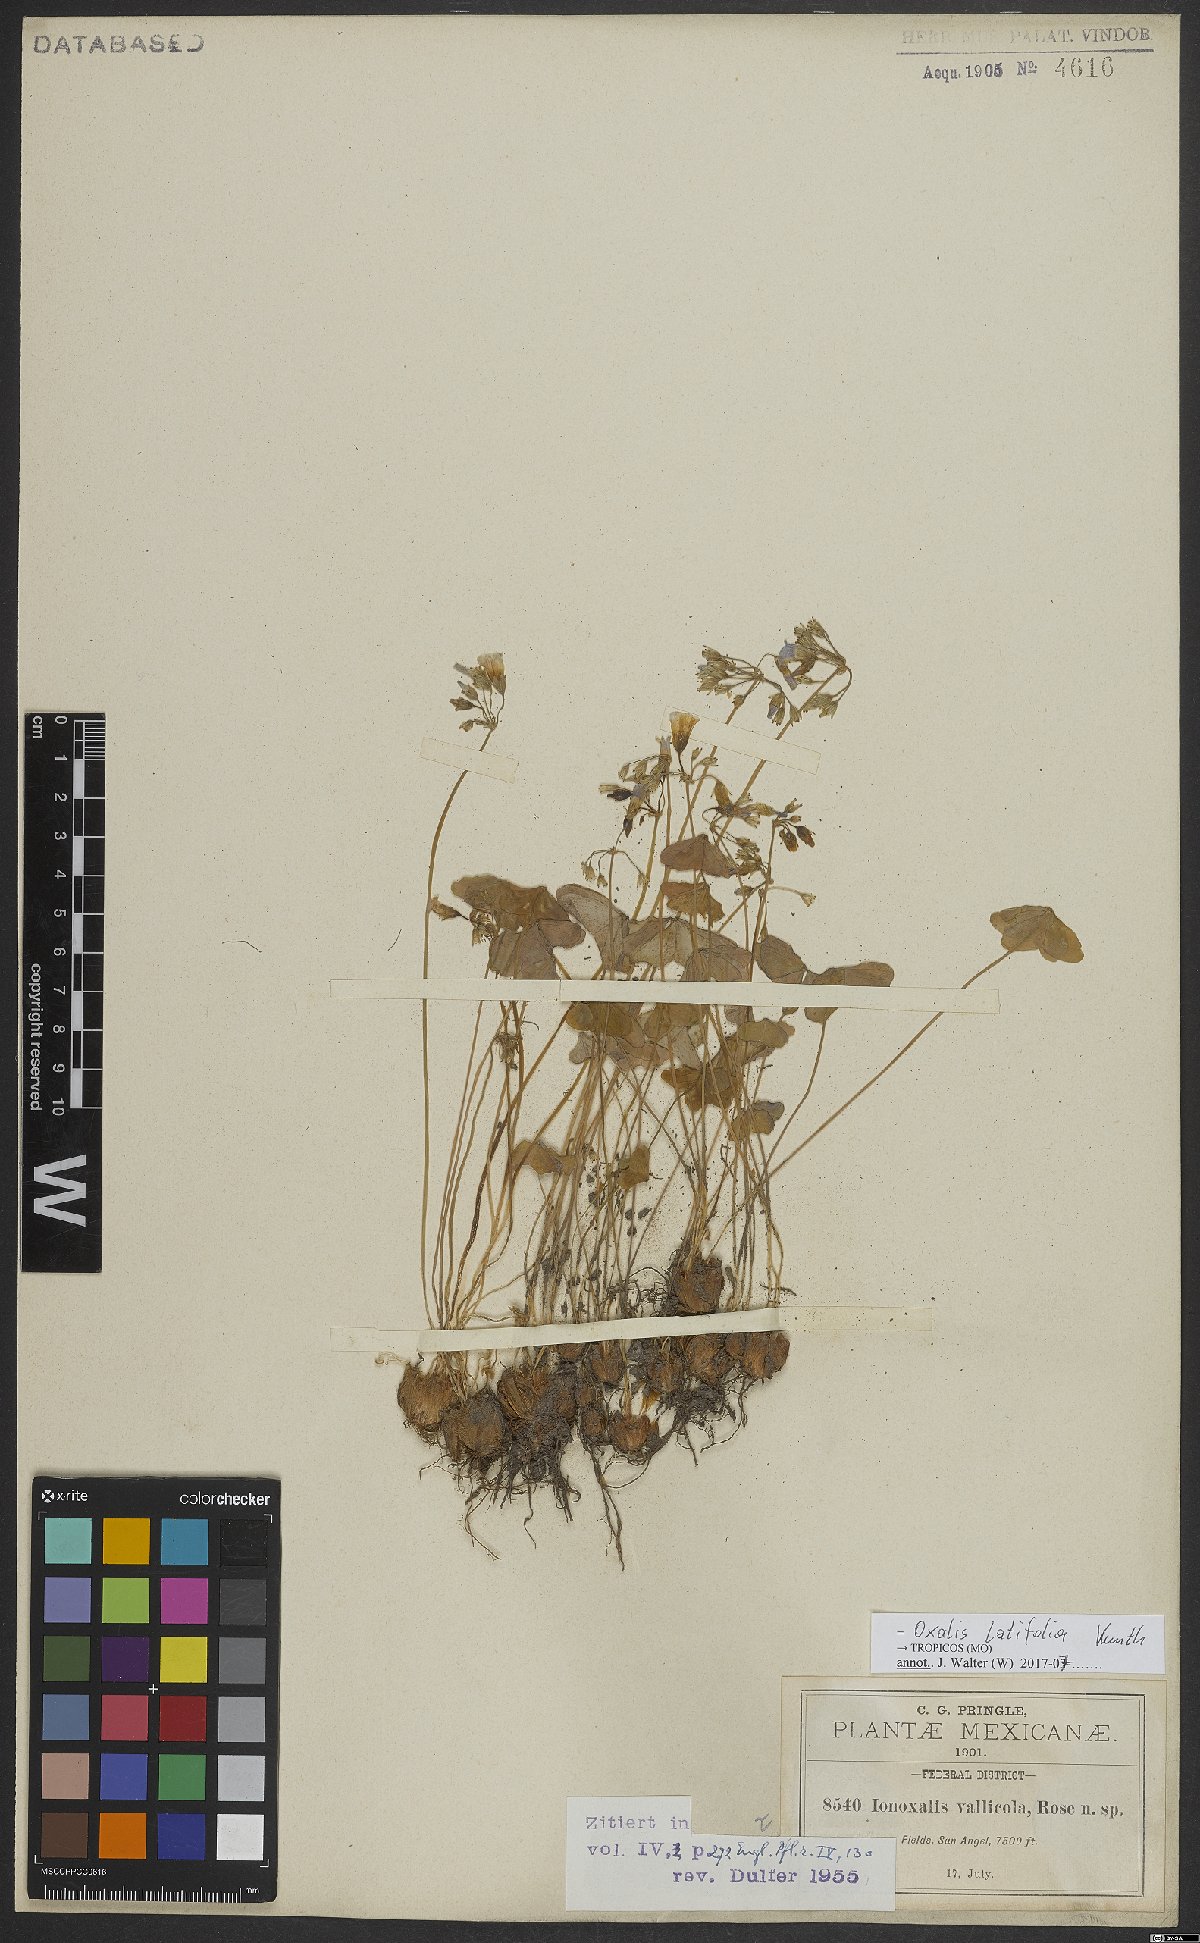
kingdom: Plantae
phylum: Tracheophyta
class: Magnoliopsida
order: Oxalidales
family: Oxalidaceae
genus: Oxalis
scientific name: Oxalis latifolia
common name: Garden pink-sorrel
